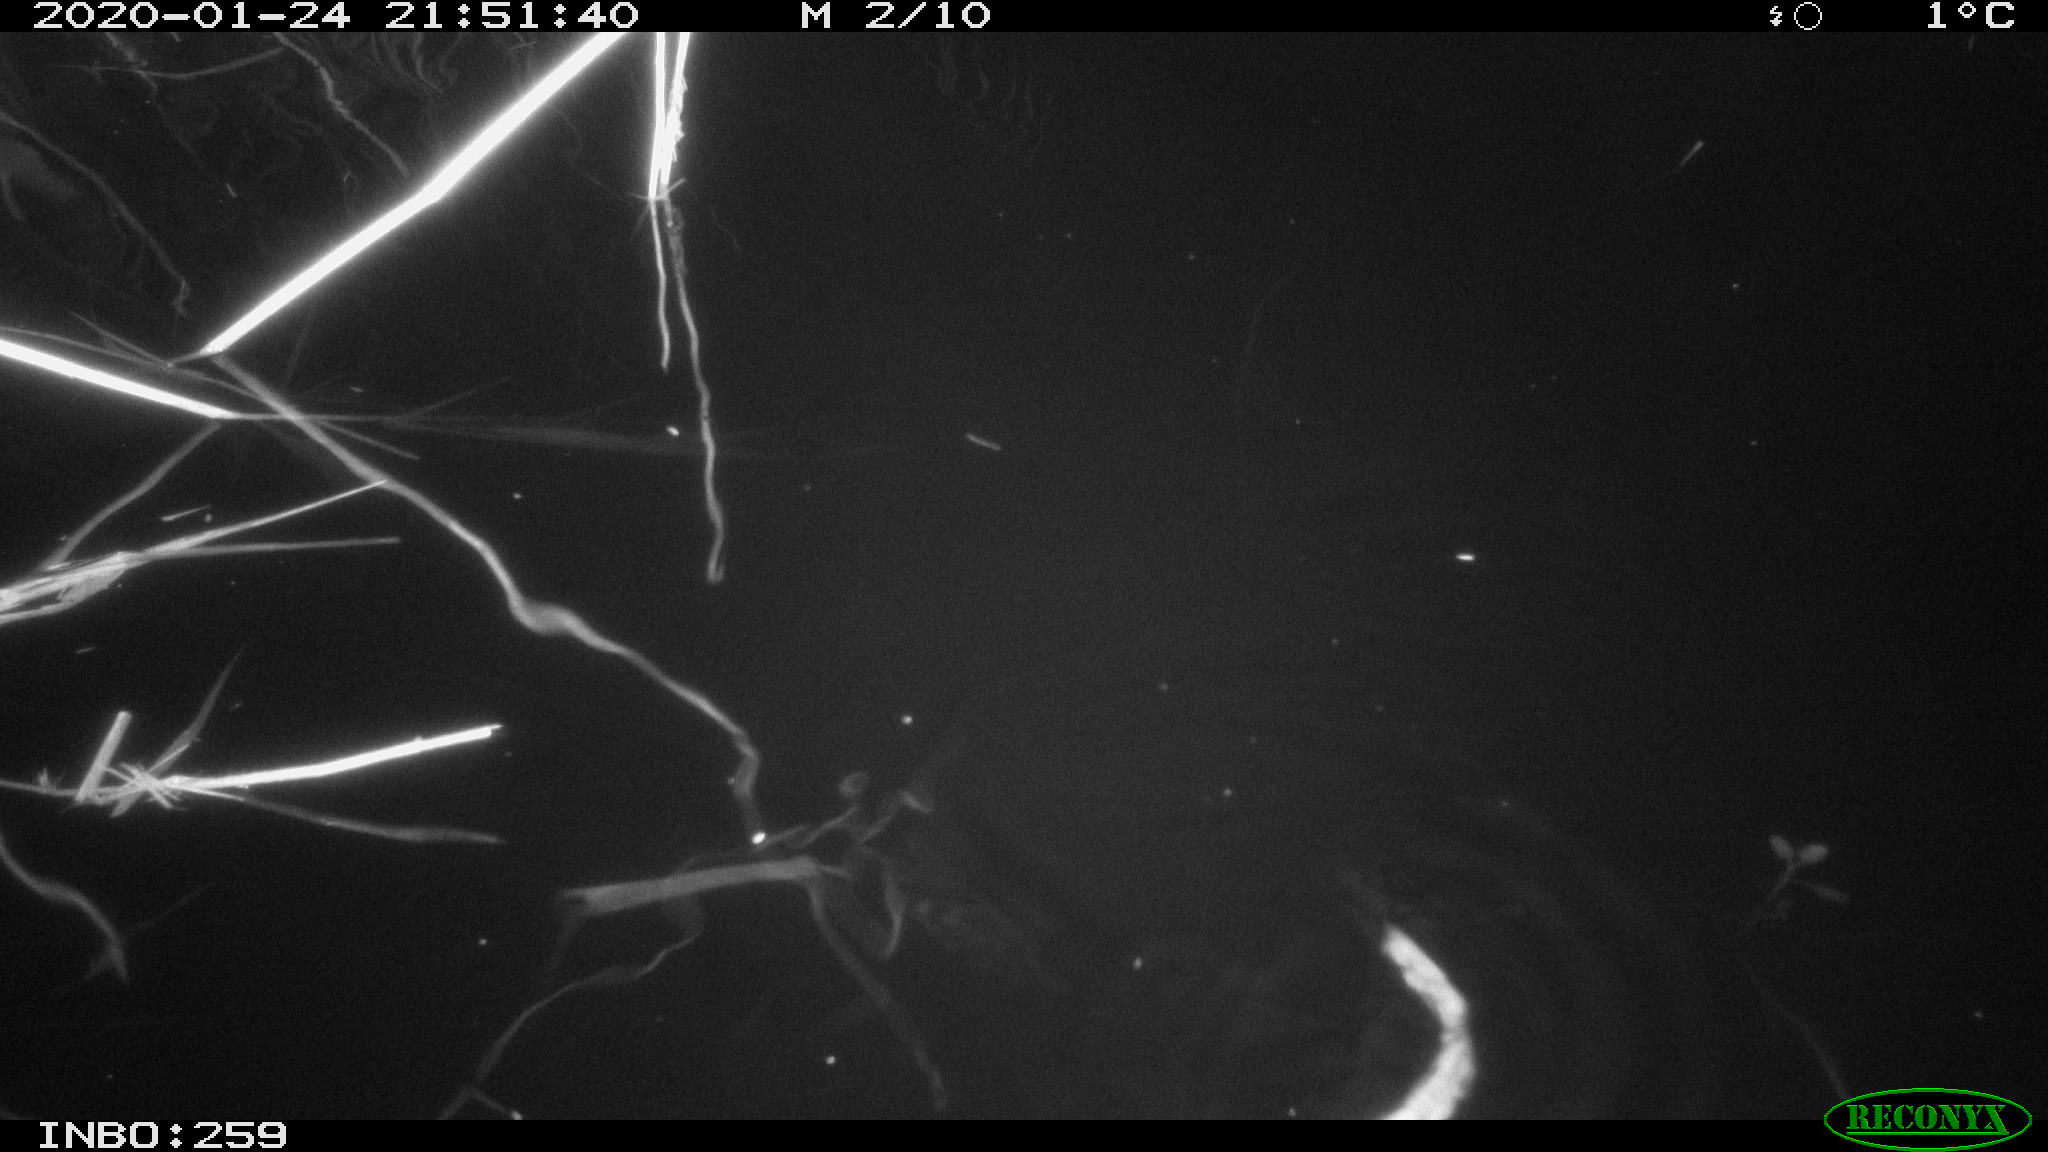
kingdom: Animalia
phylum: Chordata
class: Mammalia
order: Rodentia
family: Cricetidae
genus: Ondatra
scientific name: Ondatra zibethicus
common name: Muskrat
